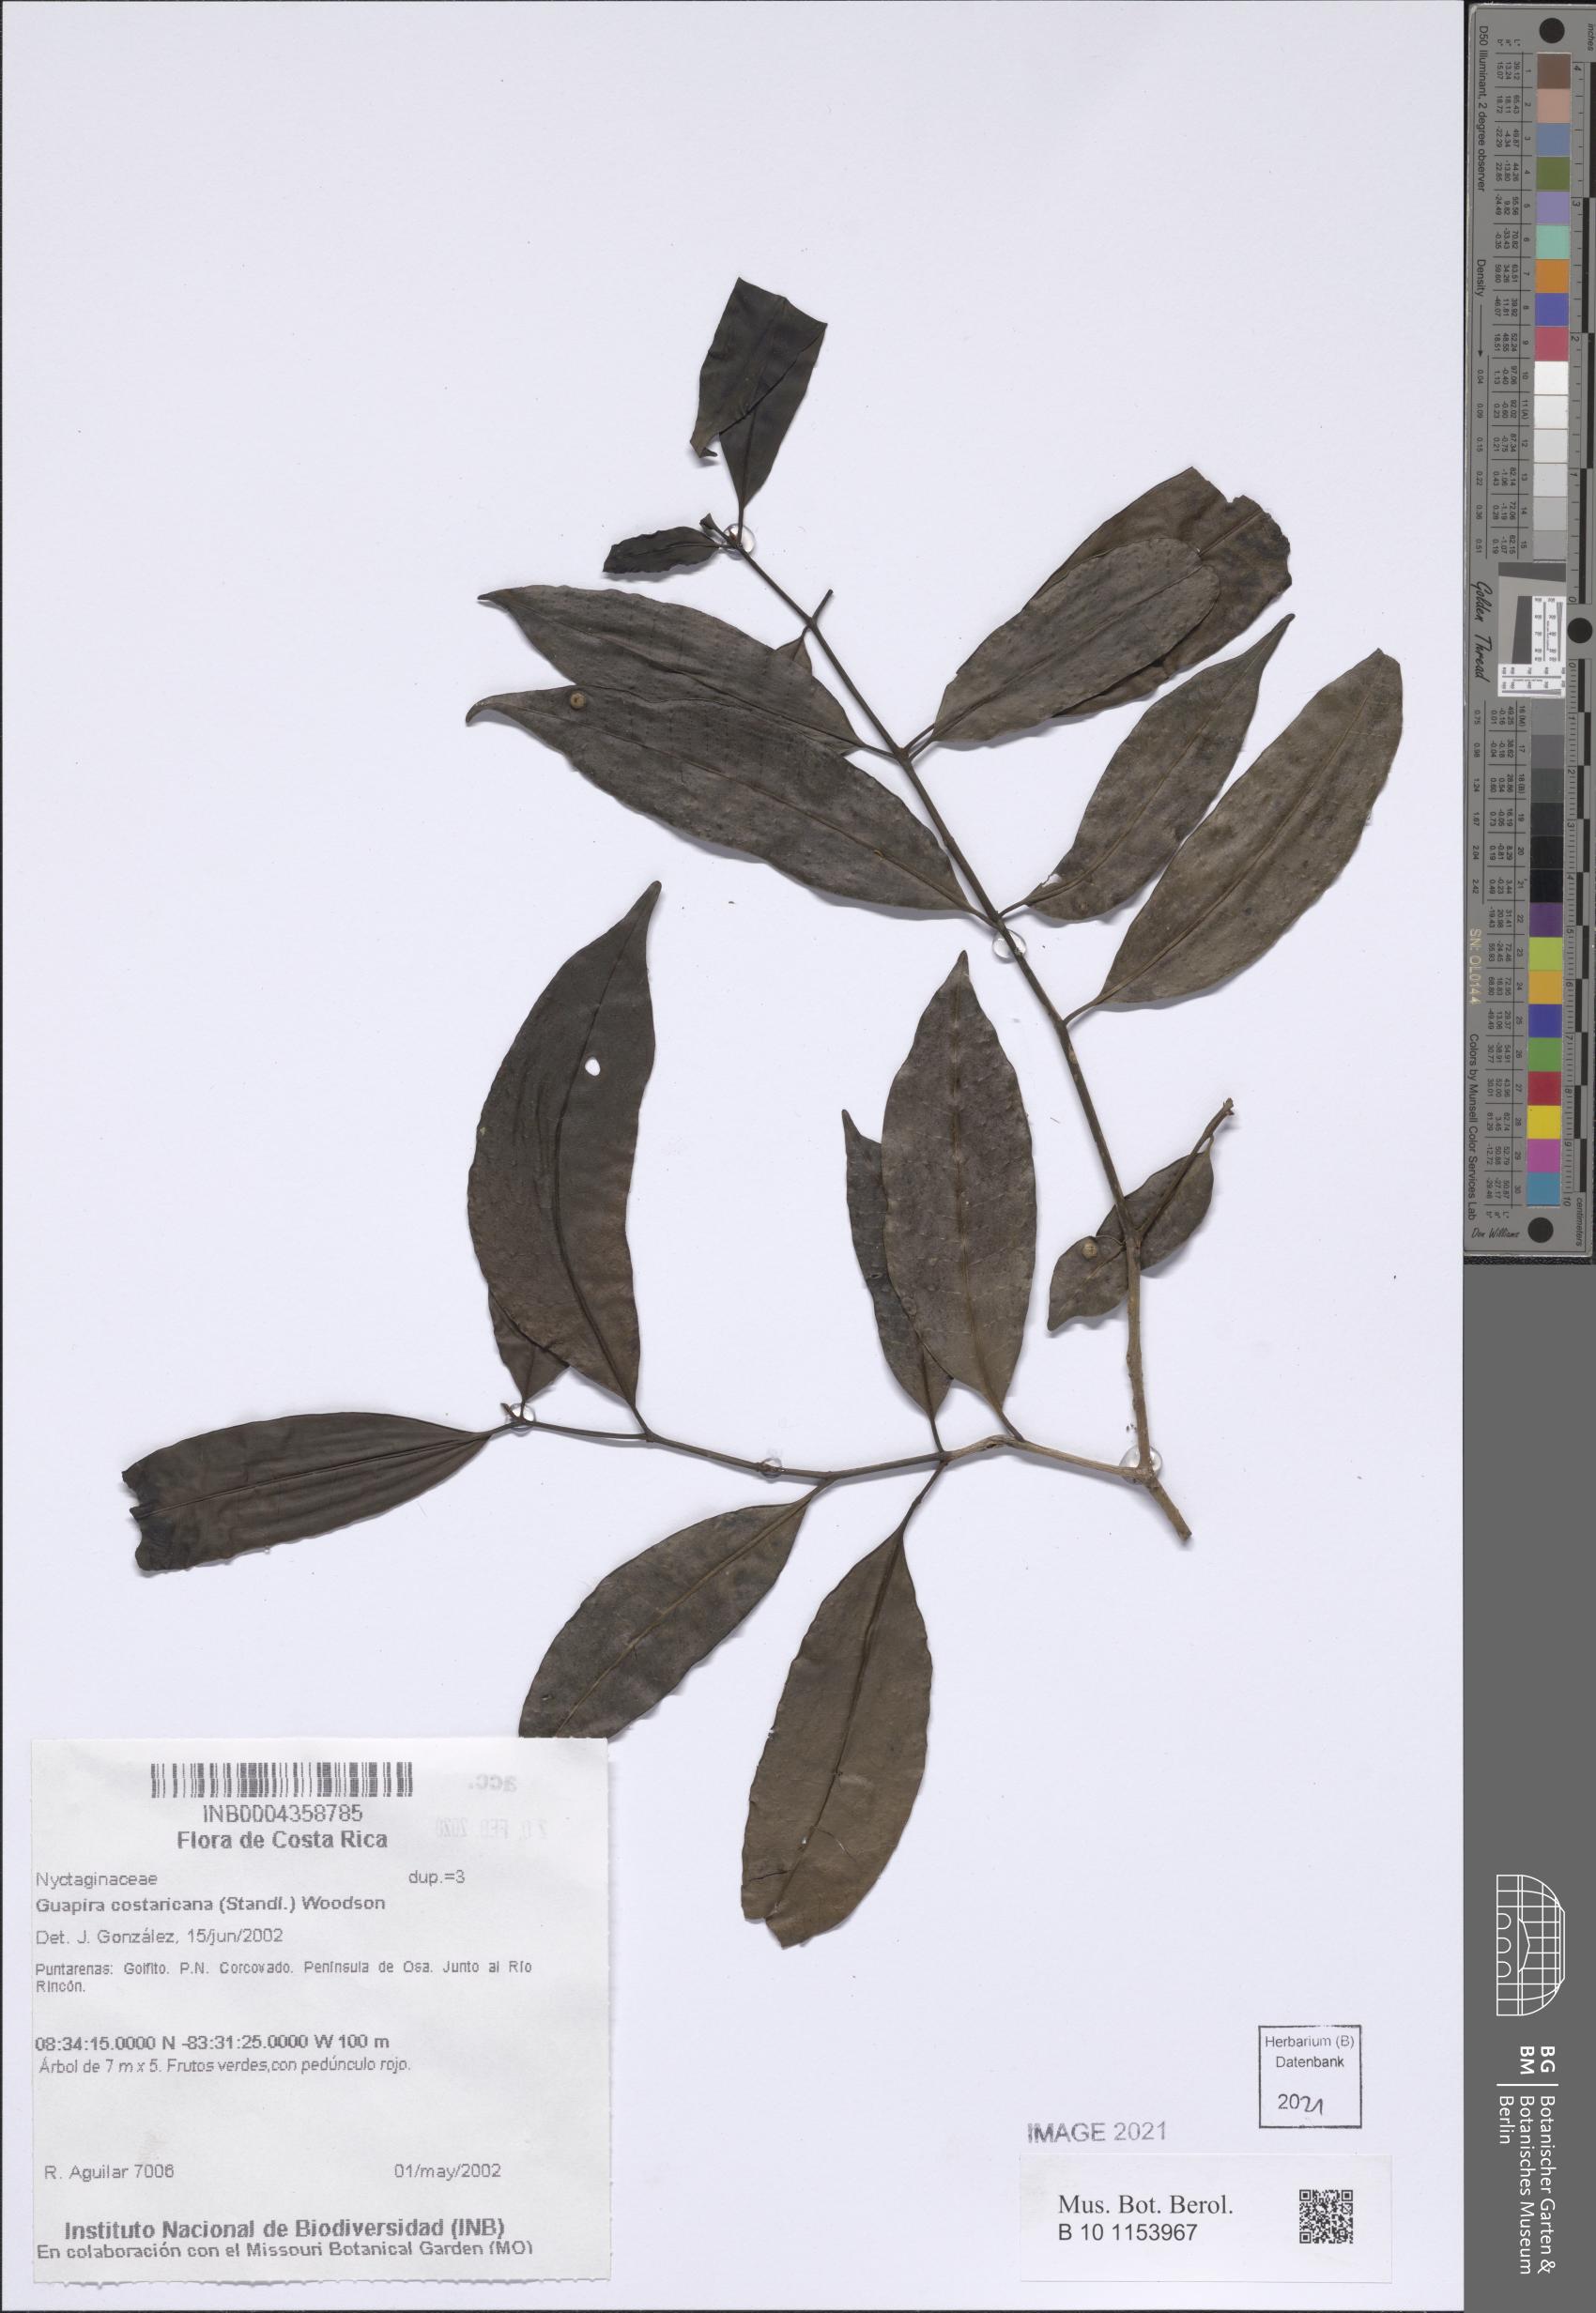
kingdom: Plantae
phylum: Tracheophyta
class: Magnoliopsida
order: Caryophyllales
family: Nyctaginaceae
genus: Guapira
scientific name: Guapira costaricana
